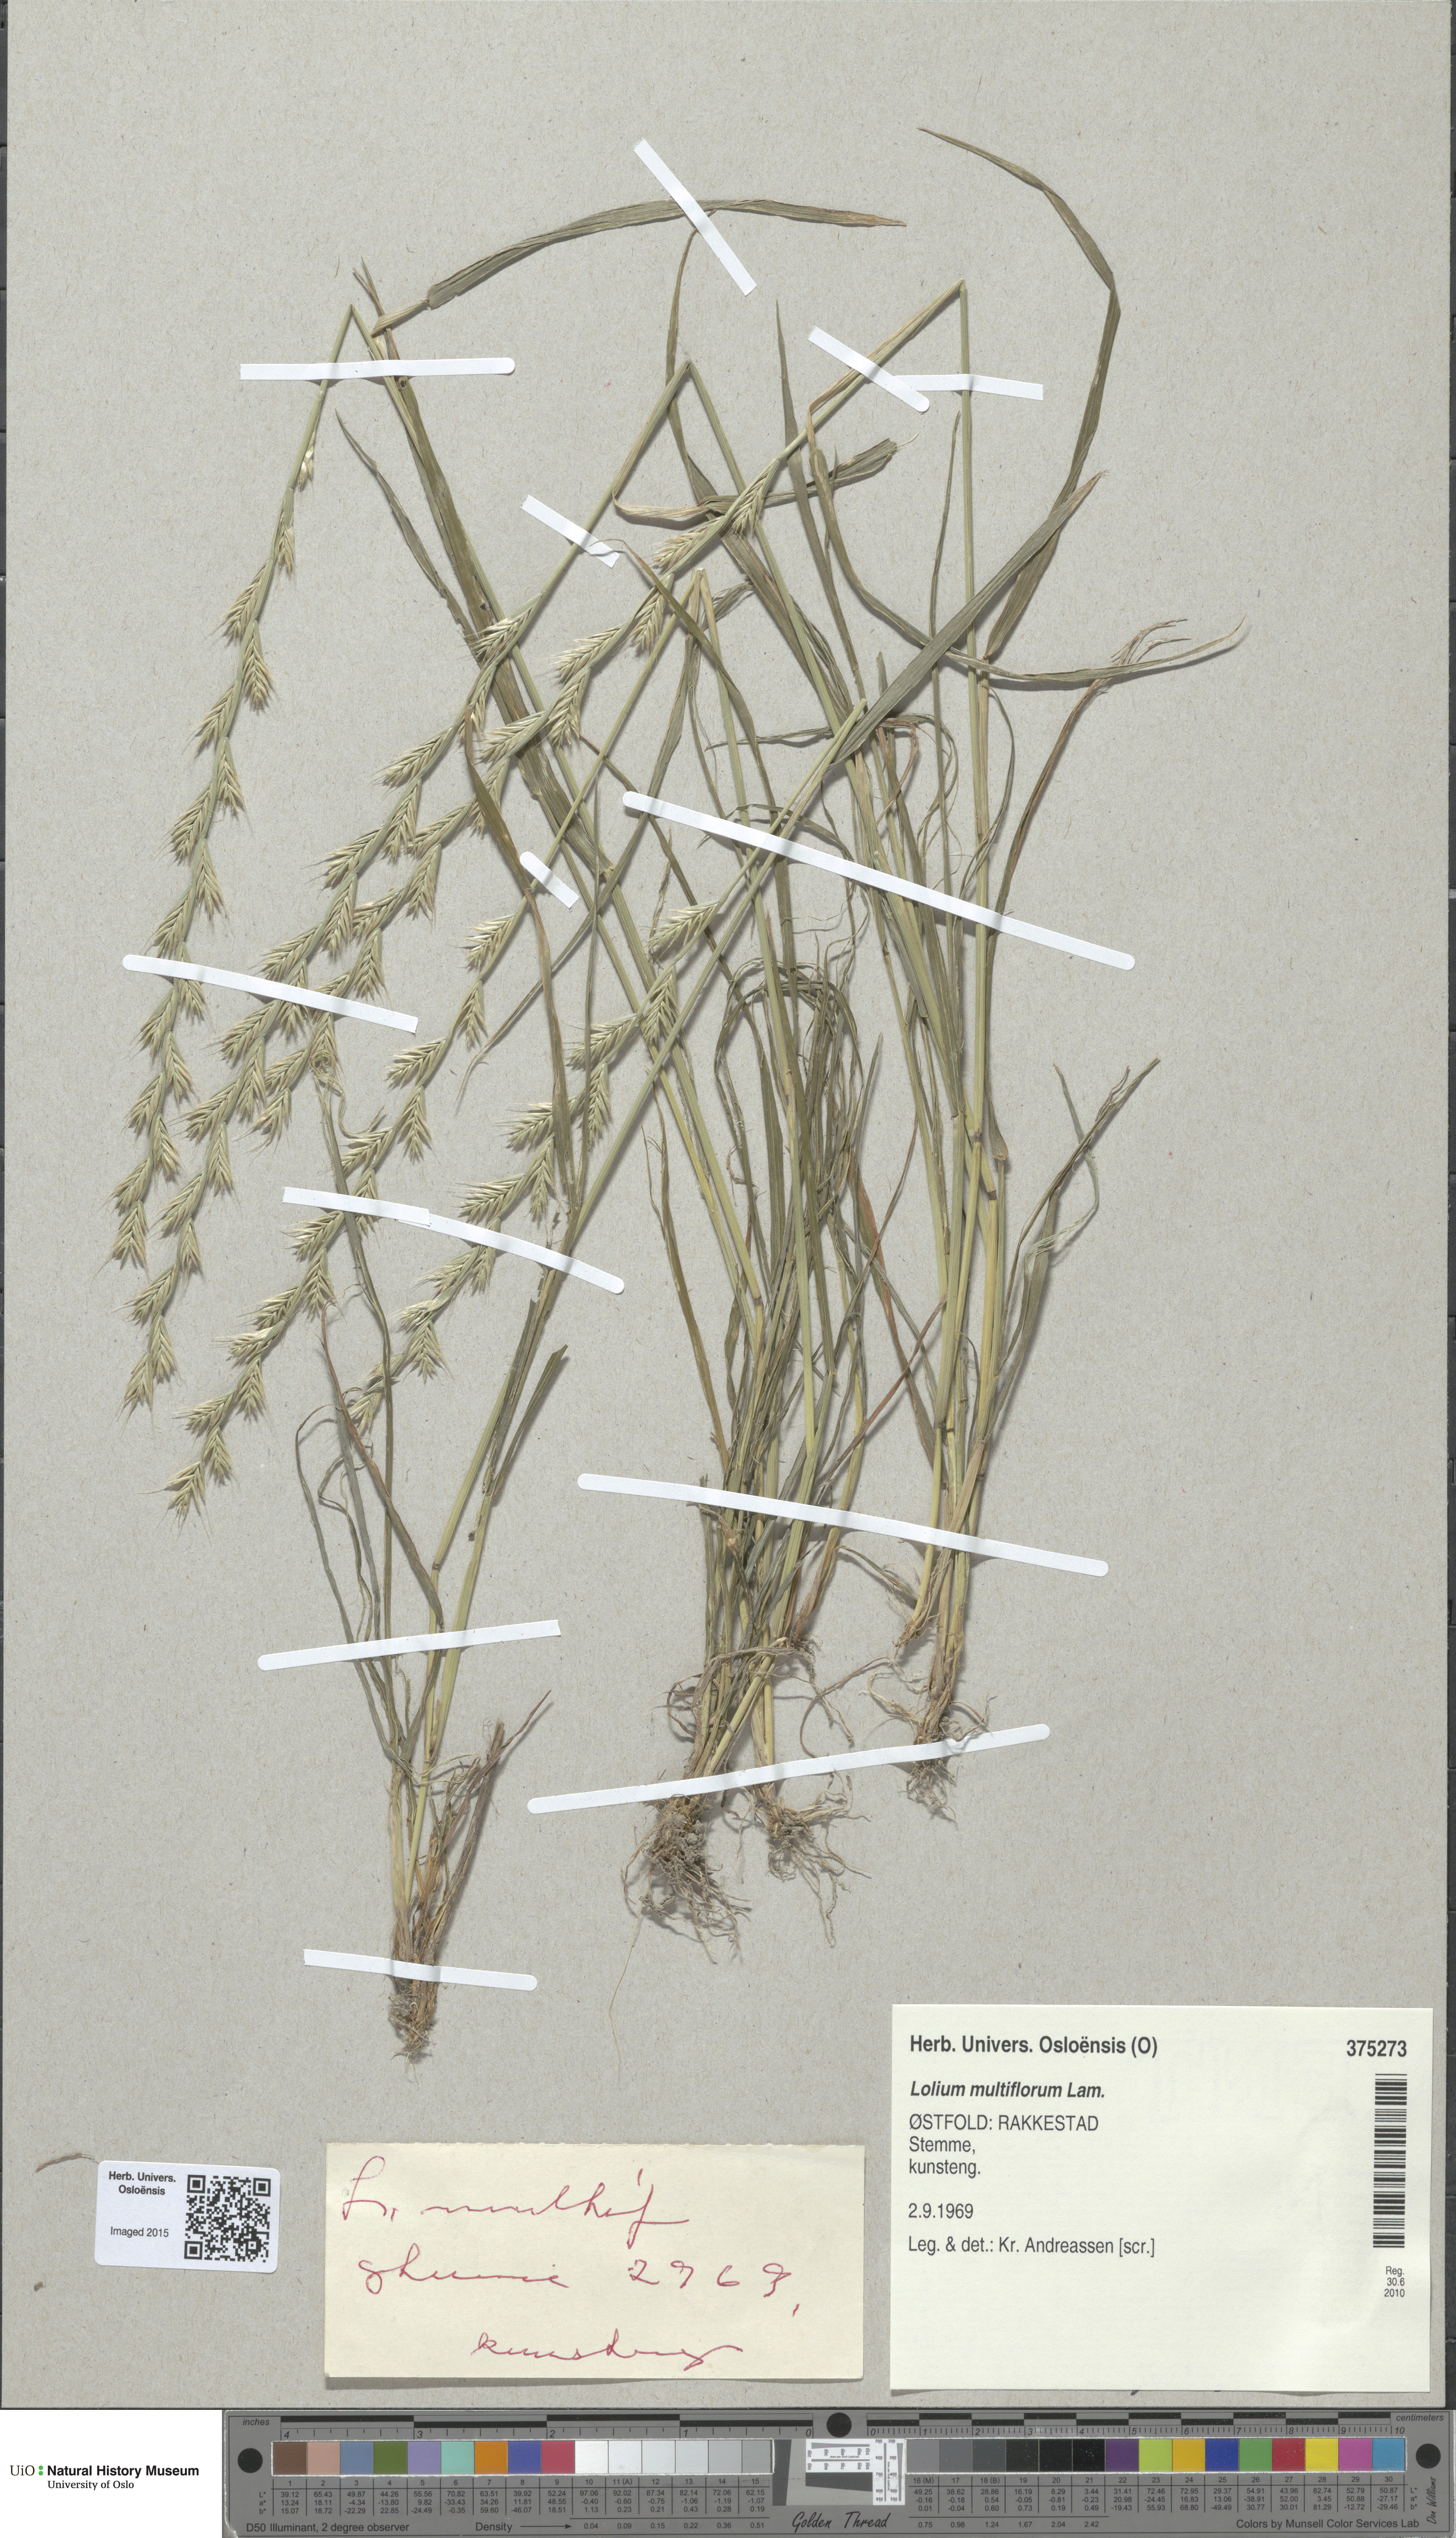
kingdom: Plantae
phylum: Tracheophyta
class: Liliopsida
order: Poales
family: Poaceae
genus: Lolium
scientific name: Lolium multiflorum
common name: Annual ryegrass
